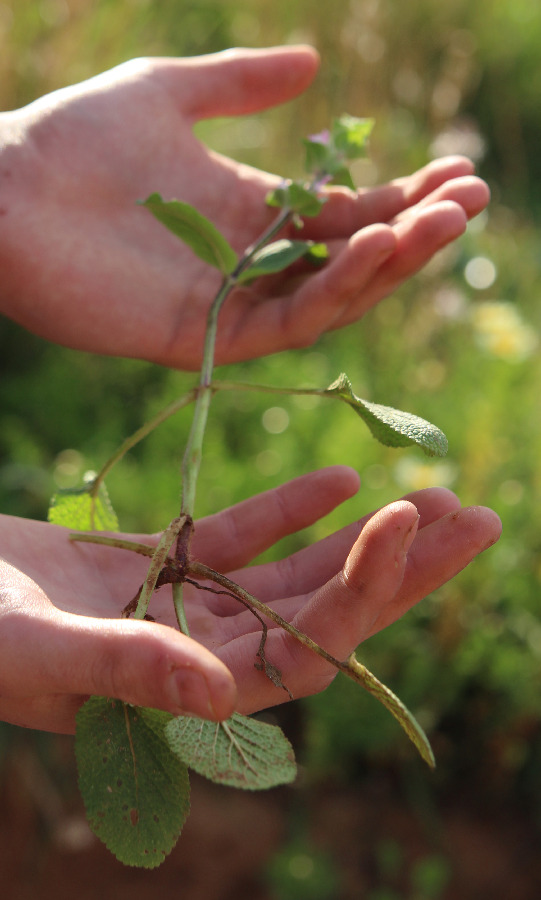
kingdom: Plantae
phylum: Tracheophyta
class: Magnoliopsida
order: Lamiales
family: Lamiaceae
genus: Salvia
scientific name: Salvia viridis
